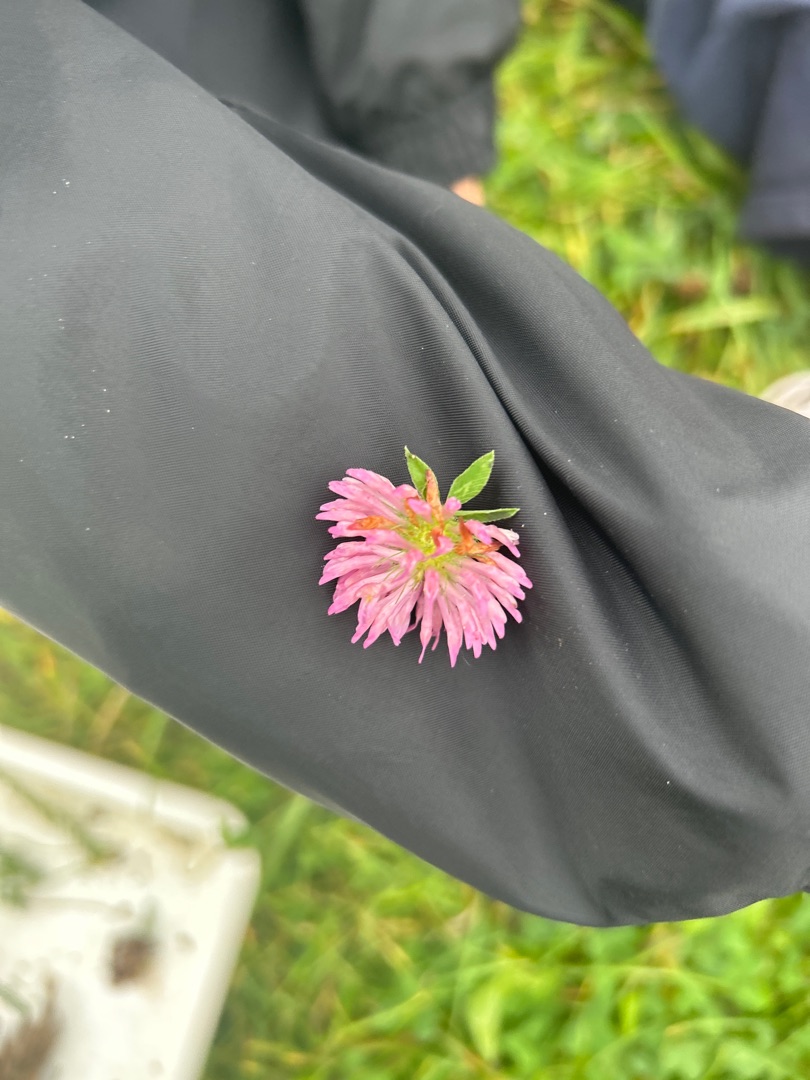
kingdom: Plantae
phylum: Tracheophyta
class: Magnoliopsida
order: Fabales
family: Fabaceae
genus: Trifolium
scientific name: Trifolium pratense
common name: Rød-kløver
